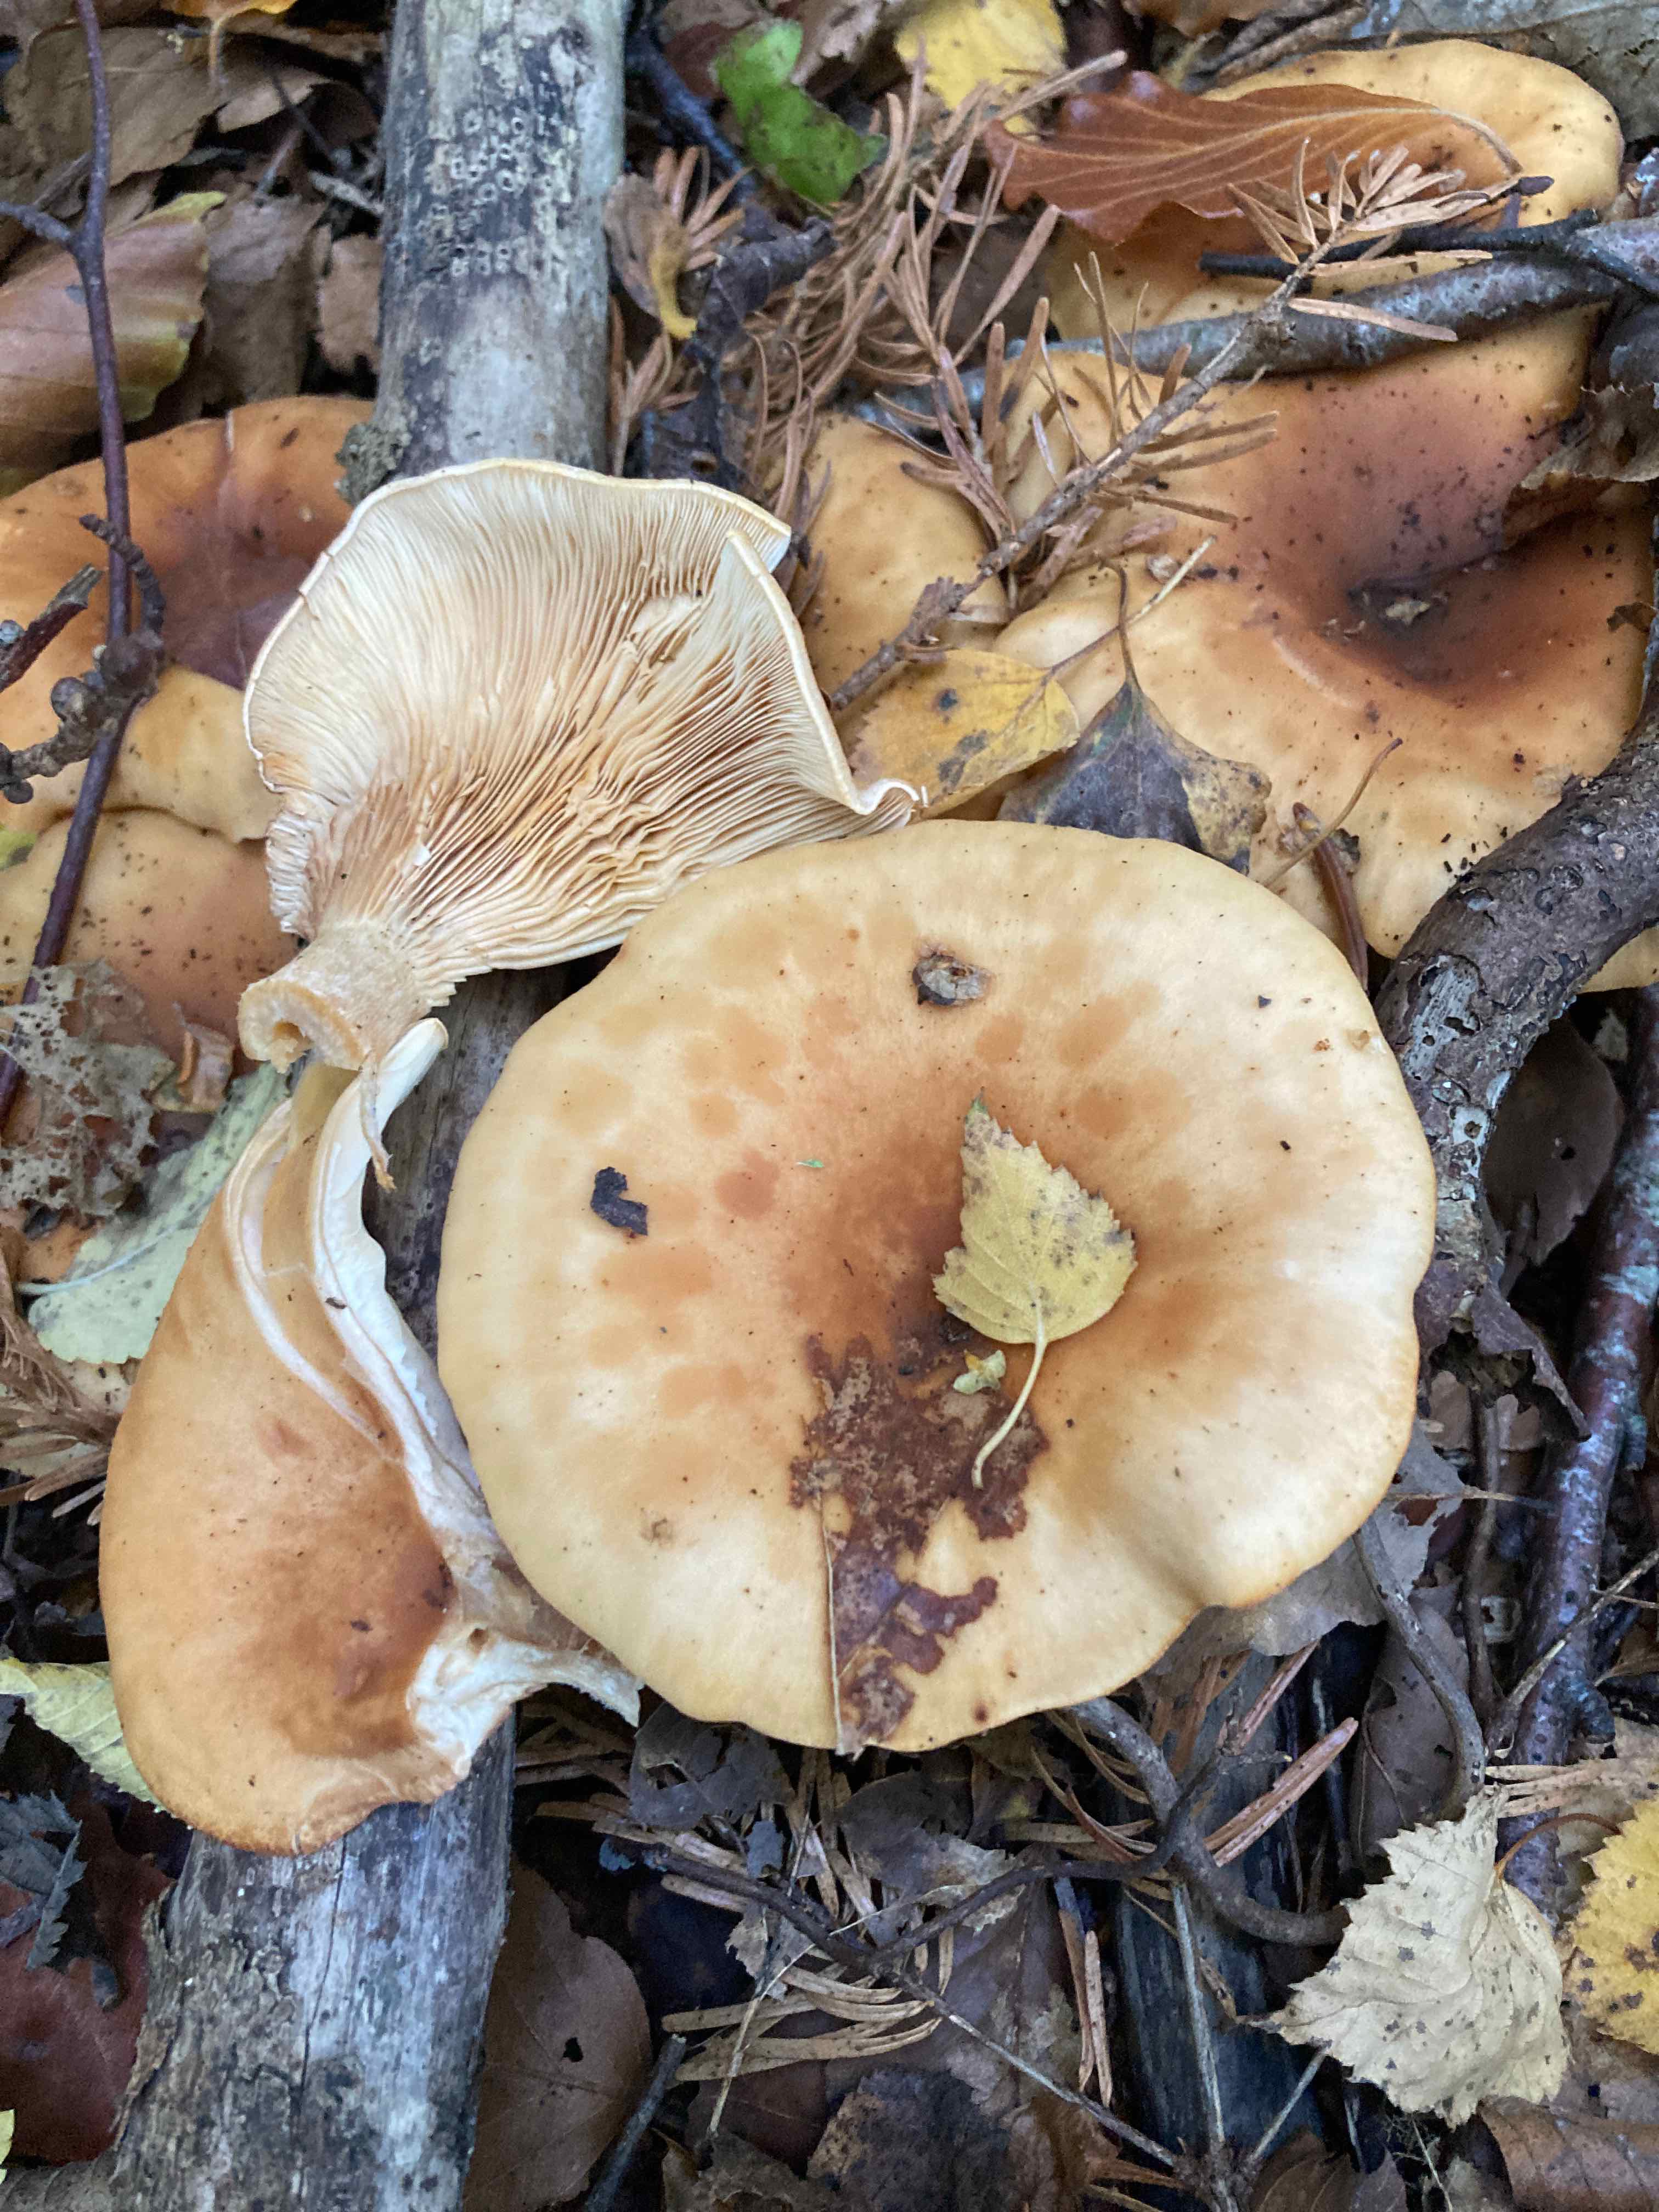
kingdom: Fungi
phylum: Basidiomycota
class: Agaricomycetes
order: Agaricales
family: Tricholomataceae
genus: Paralepista
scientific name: Paralepista flaccida
